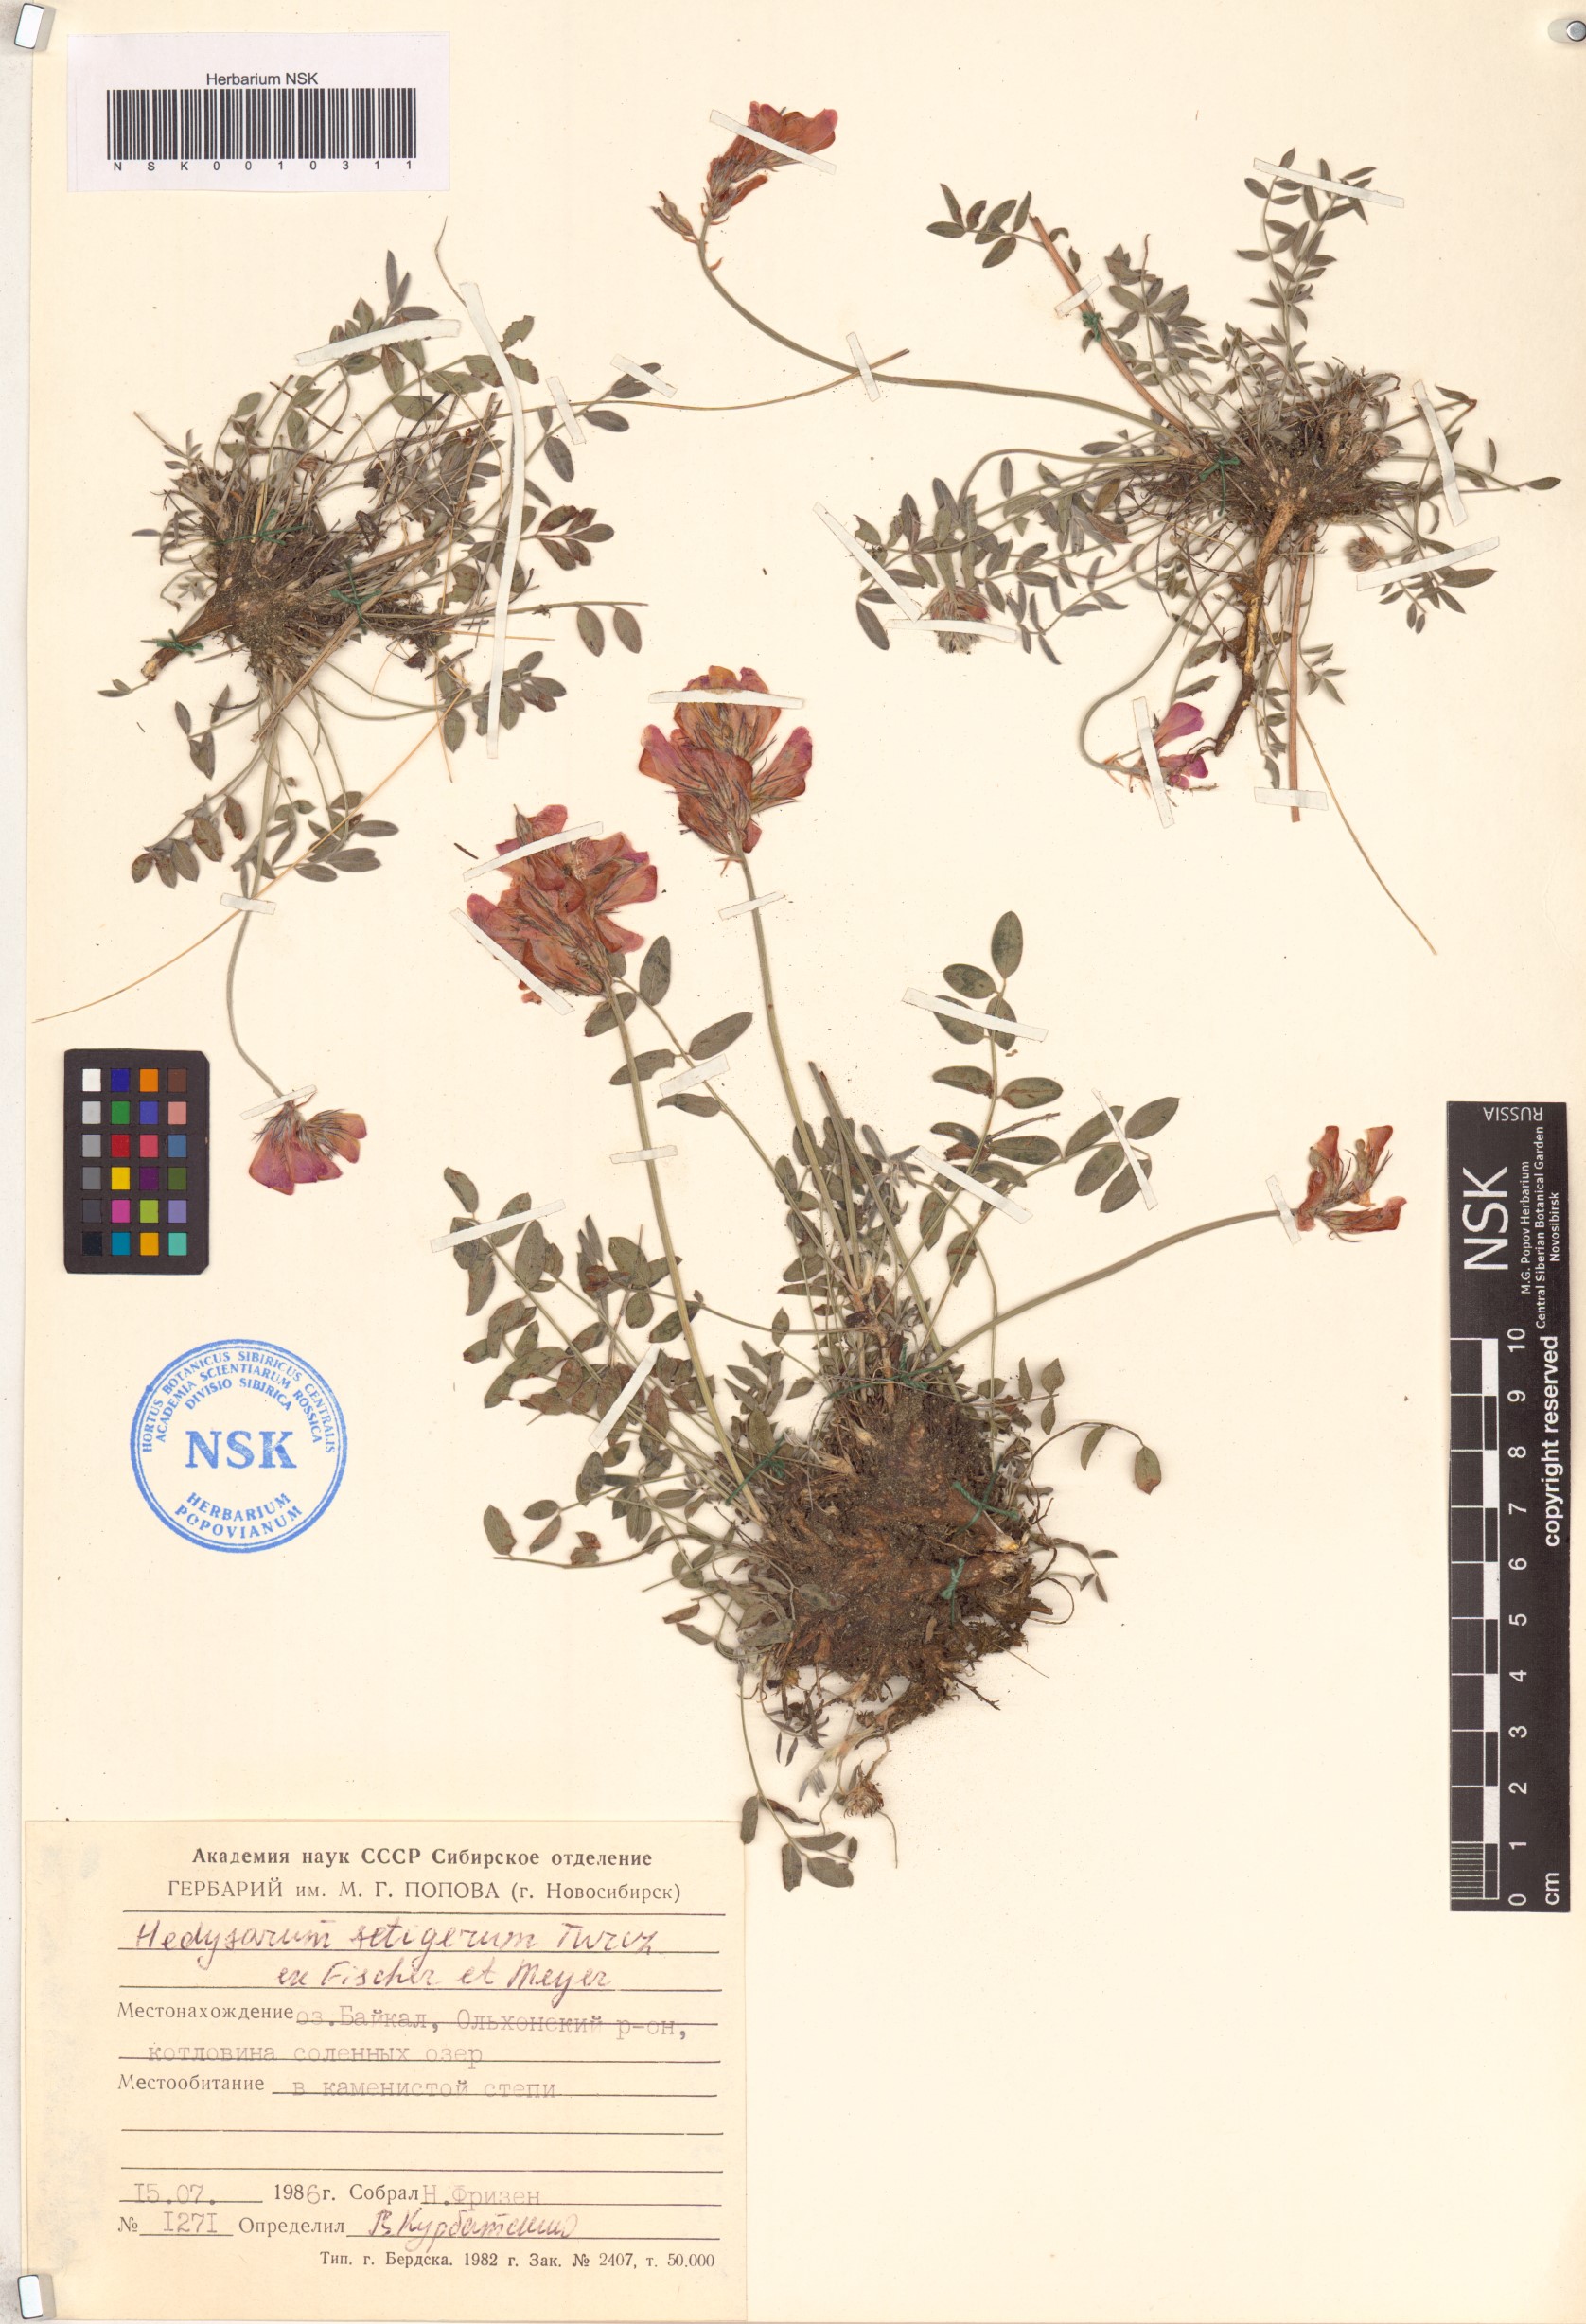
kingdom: Plantae
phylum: Tracheophyta
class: Magnoliopsida
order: Fabales
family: Fabaceae
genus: Hedysarum
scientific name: Hedysarum setigerum
